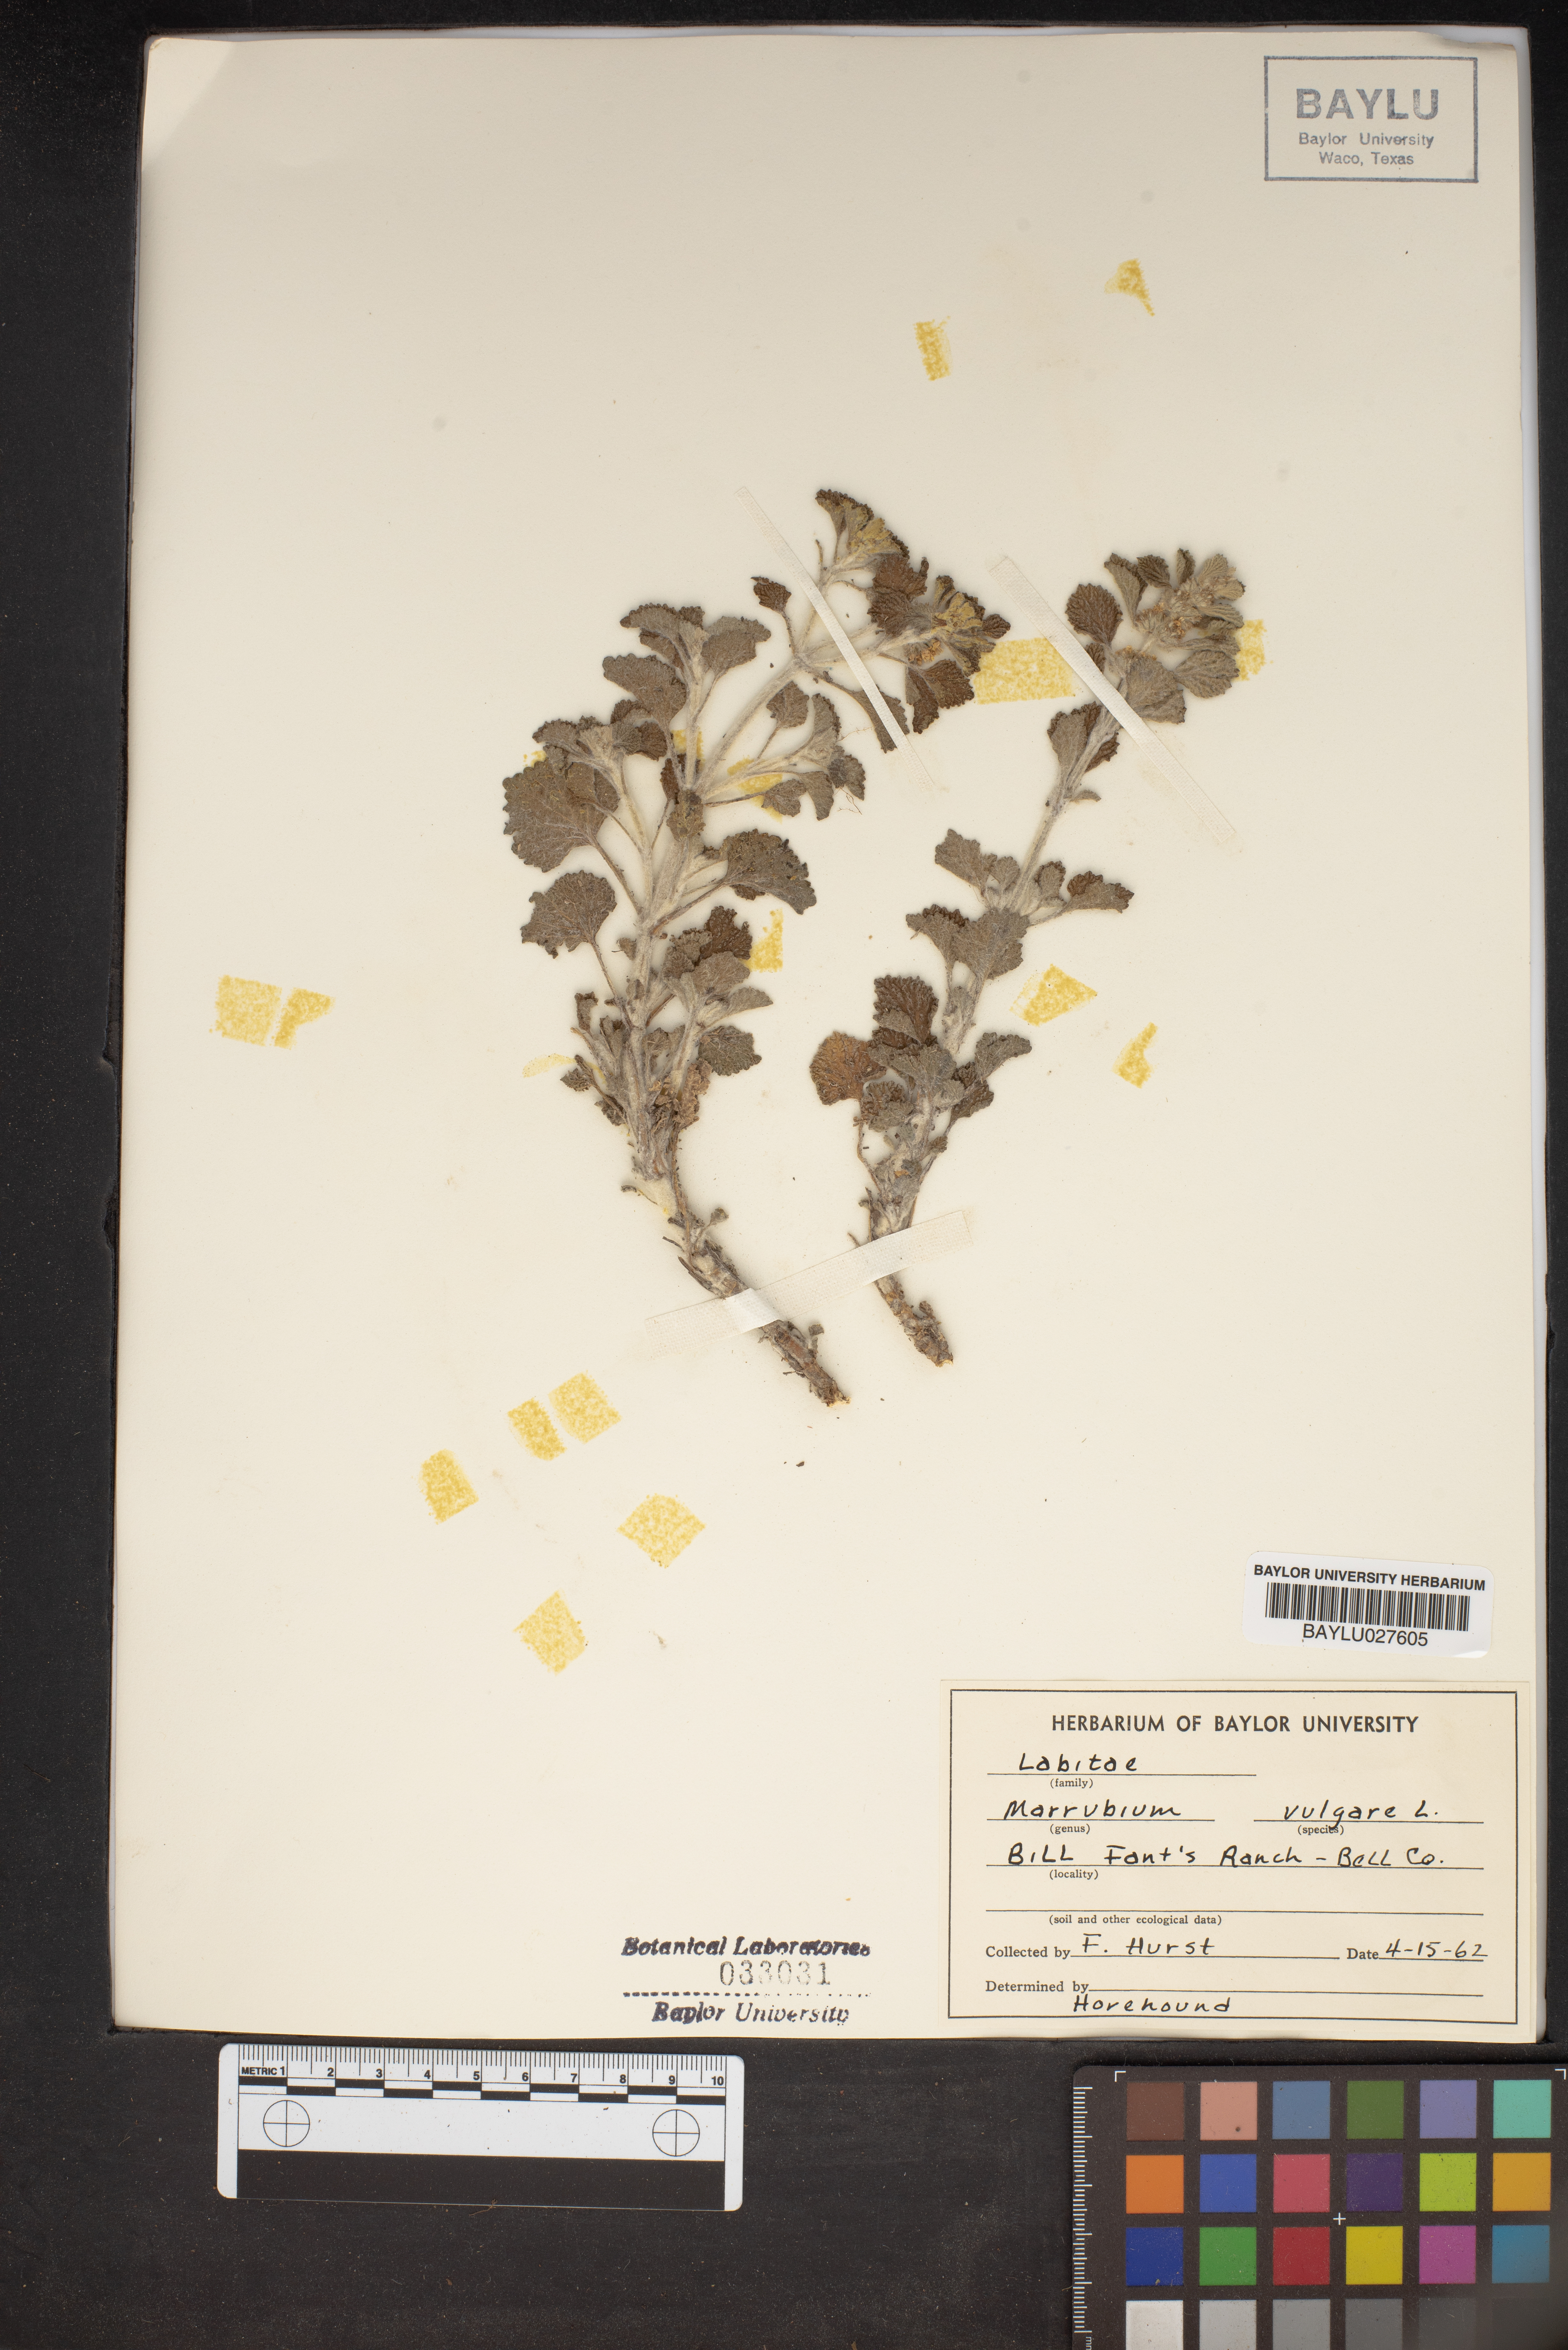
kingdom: Plantae
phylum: Tracheophyta
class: Magnoliopsida
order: Lamiales
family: Lamiaceae
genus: Marrubium
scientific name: Marrubium vulgare
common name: Horehound
